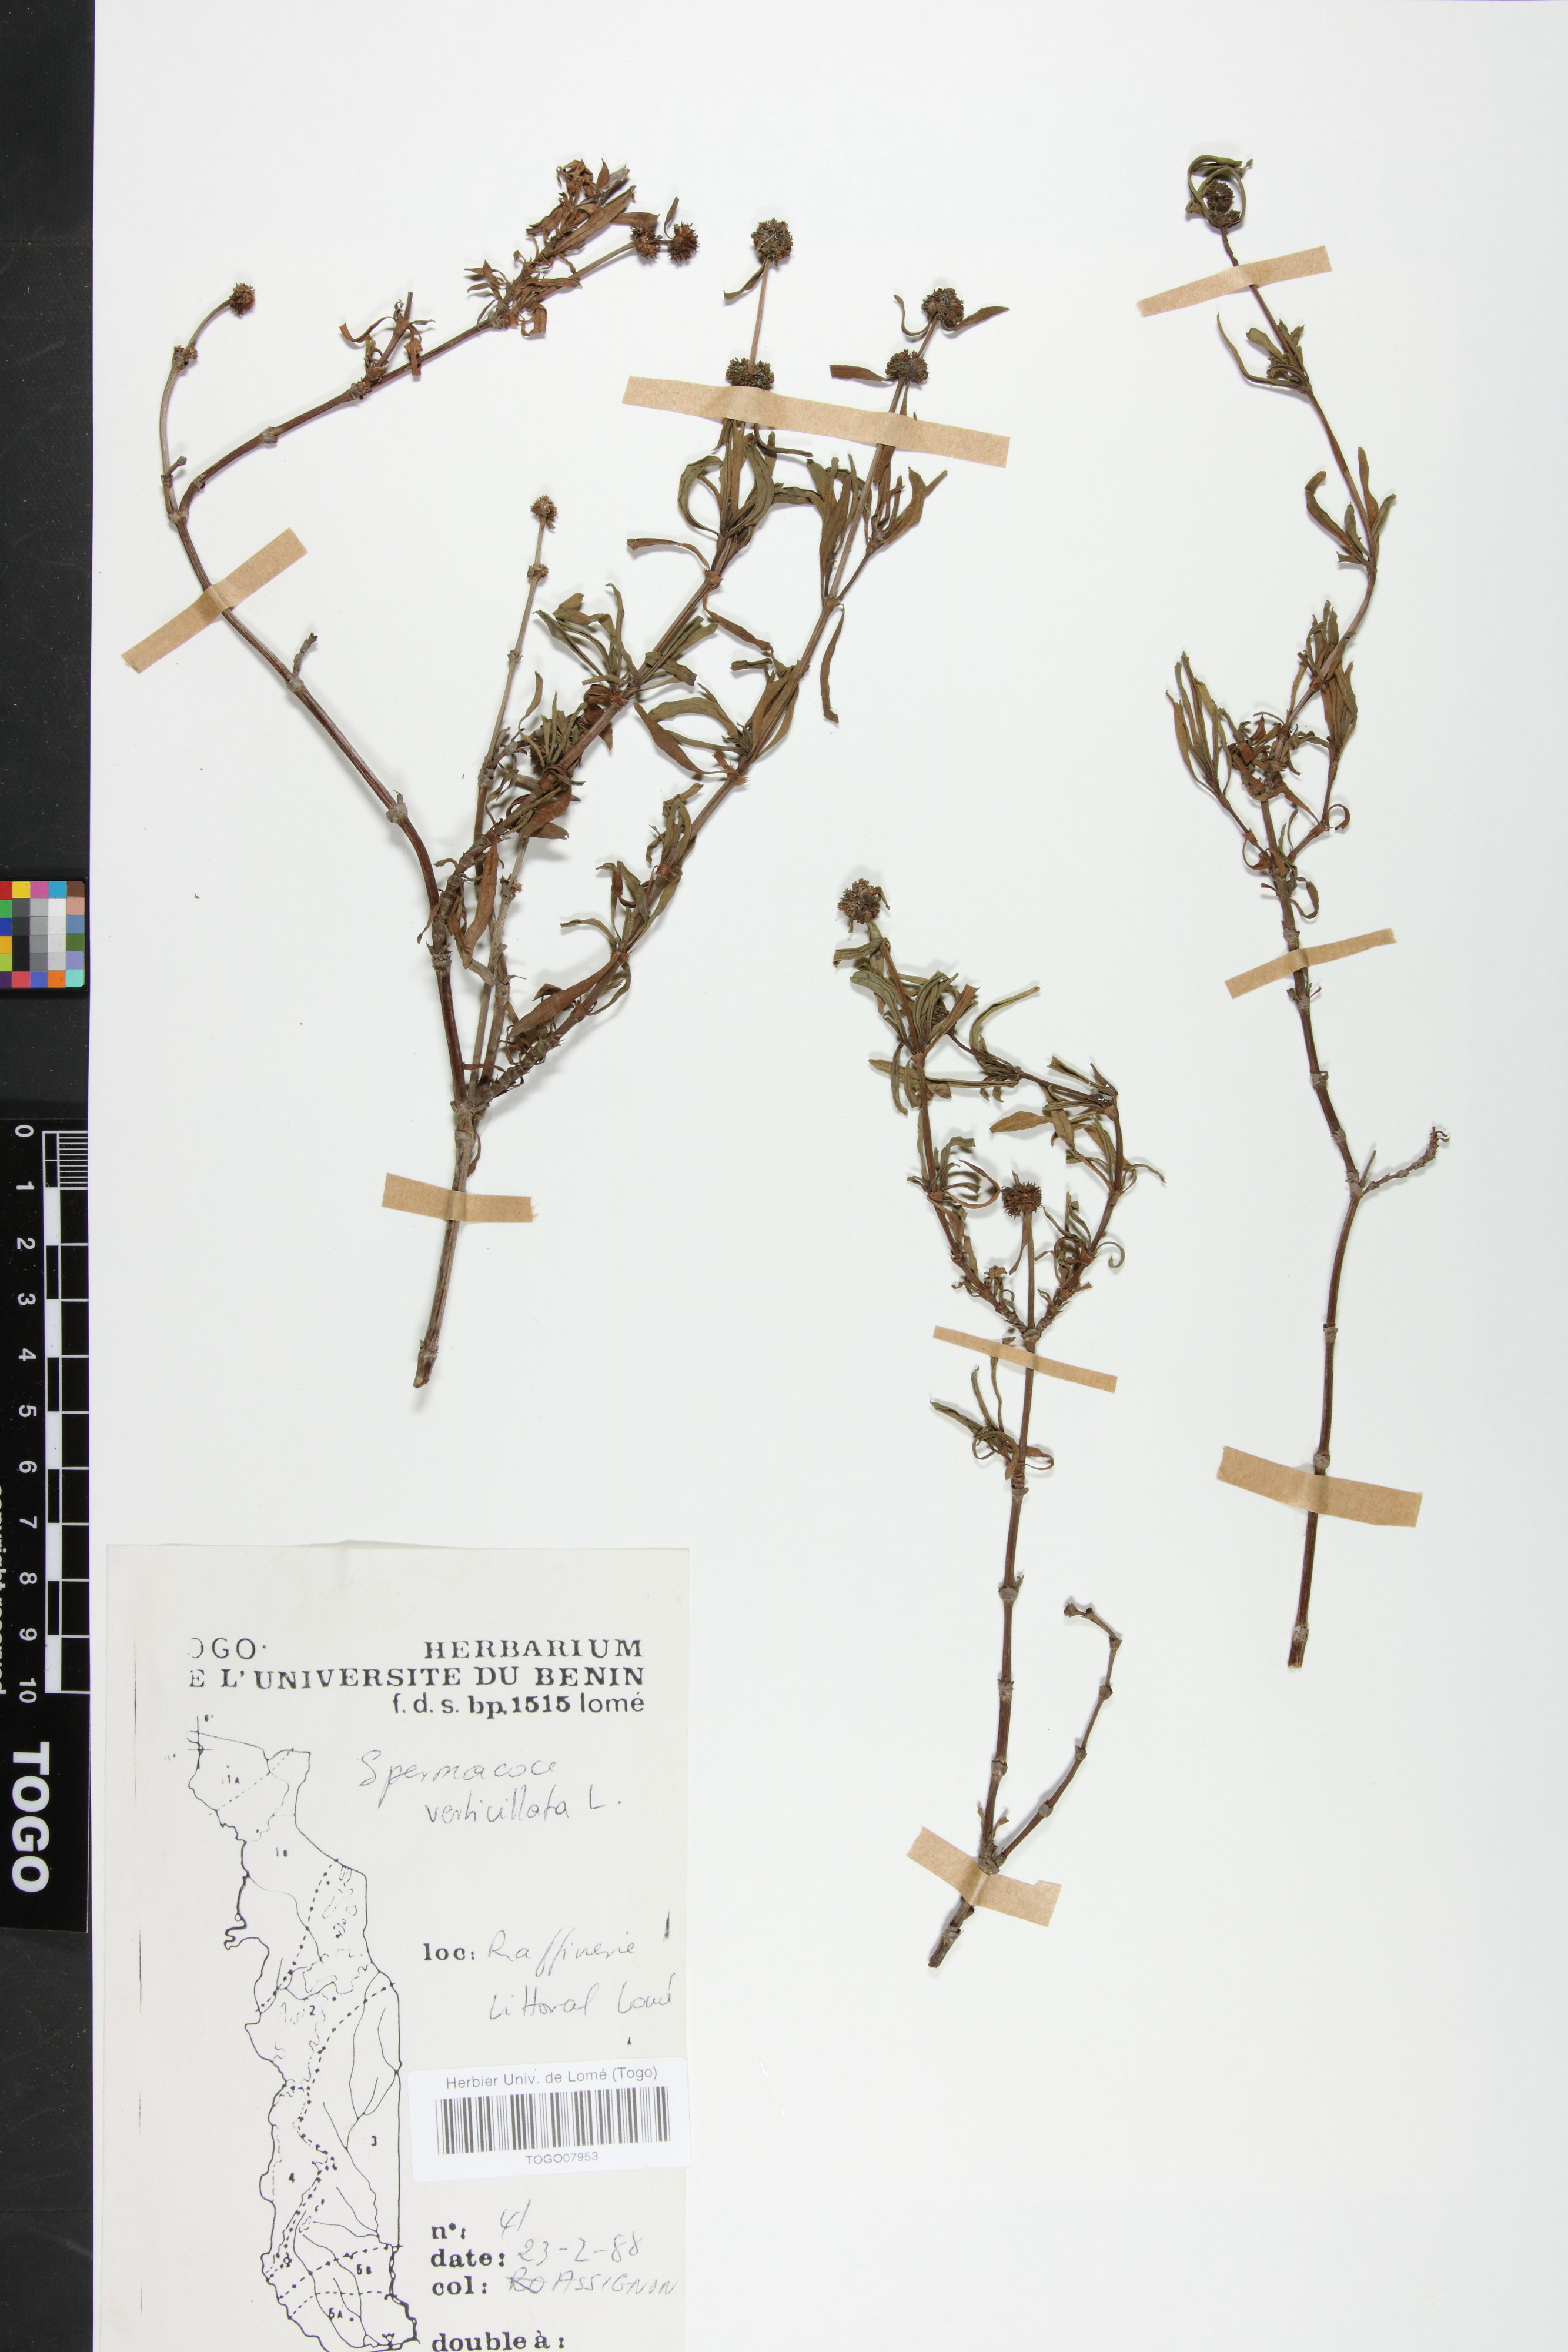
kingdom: Plantae
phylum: Tracheophyta
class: Magnoliopsida
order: Gentianales
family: Rubiaceae
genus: Spermacoce
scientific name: Spermacoce verticillata
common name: Shrubby false buttonweed
